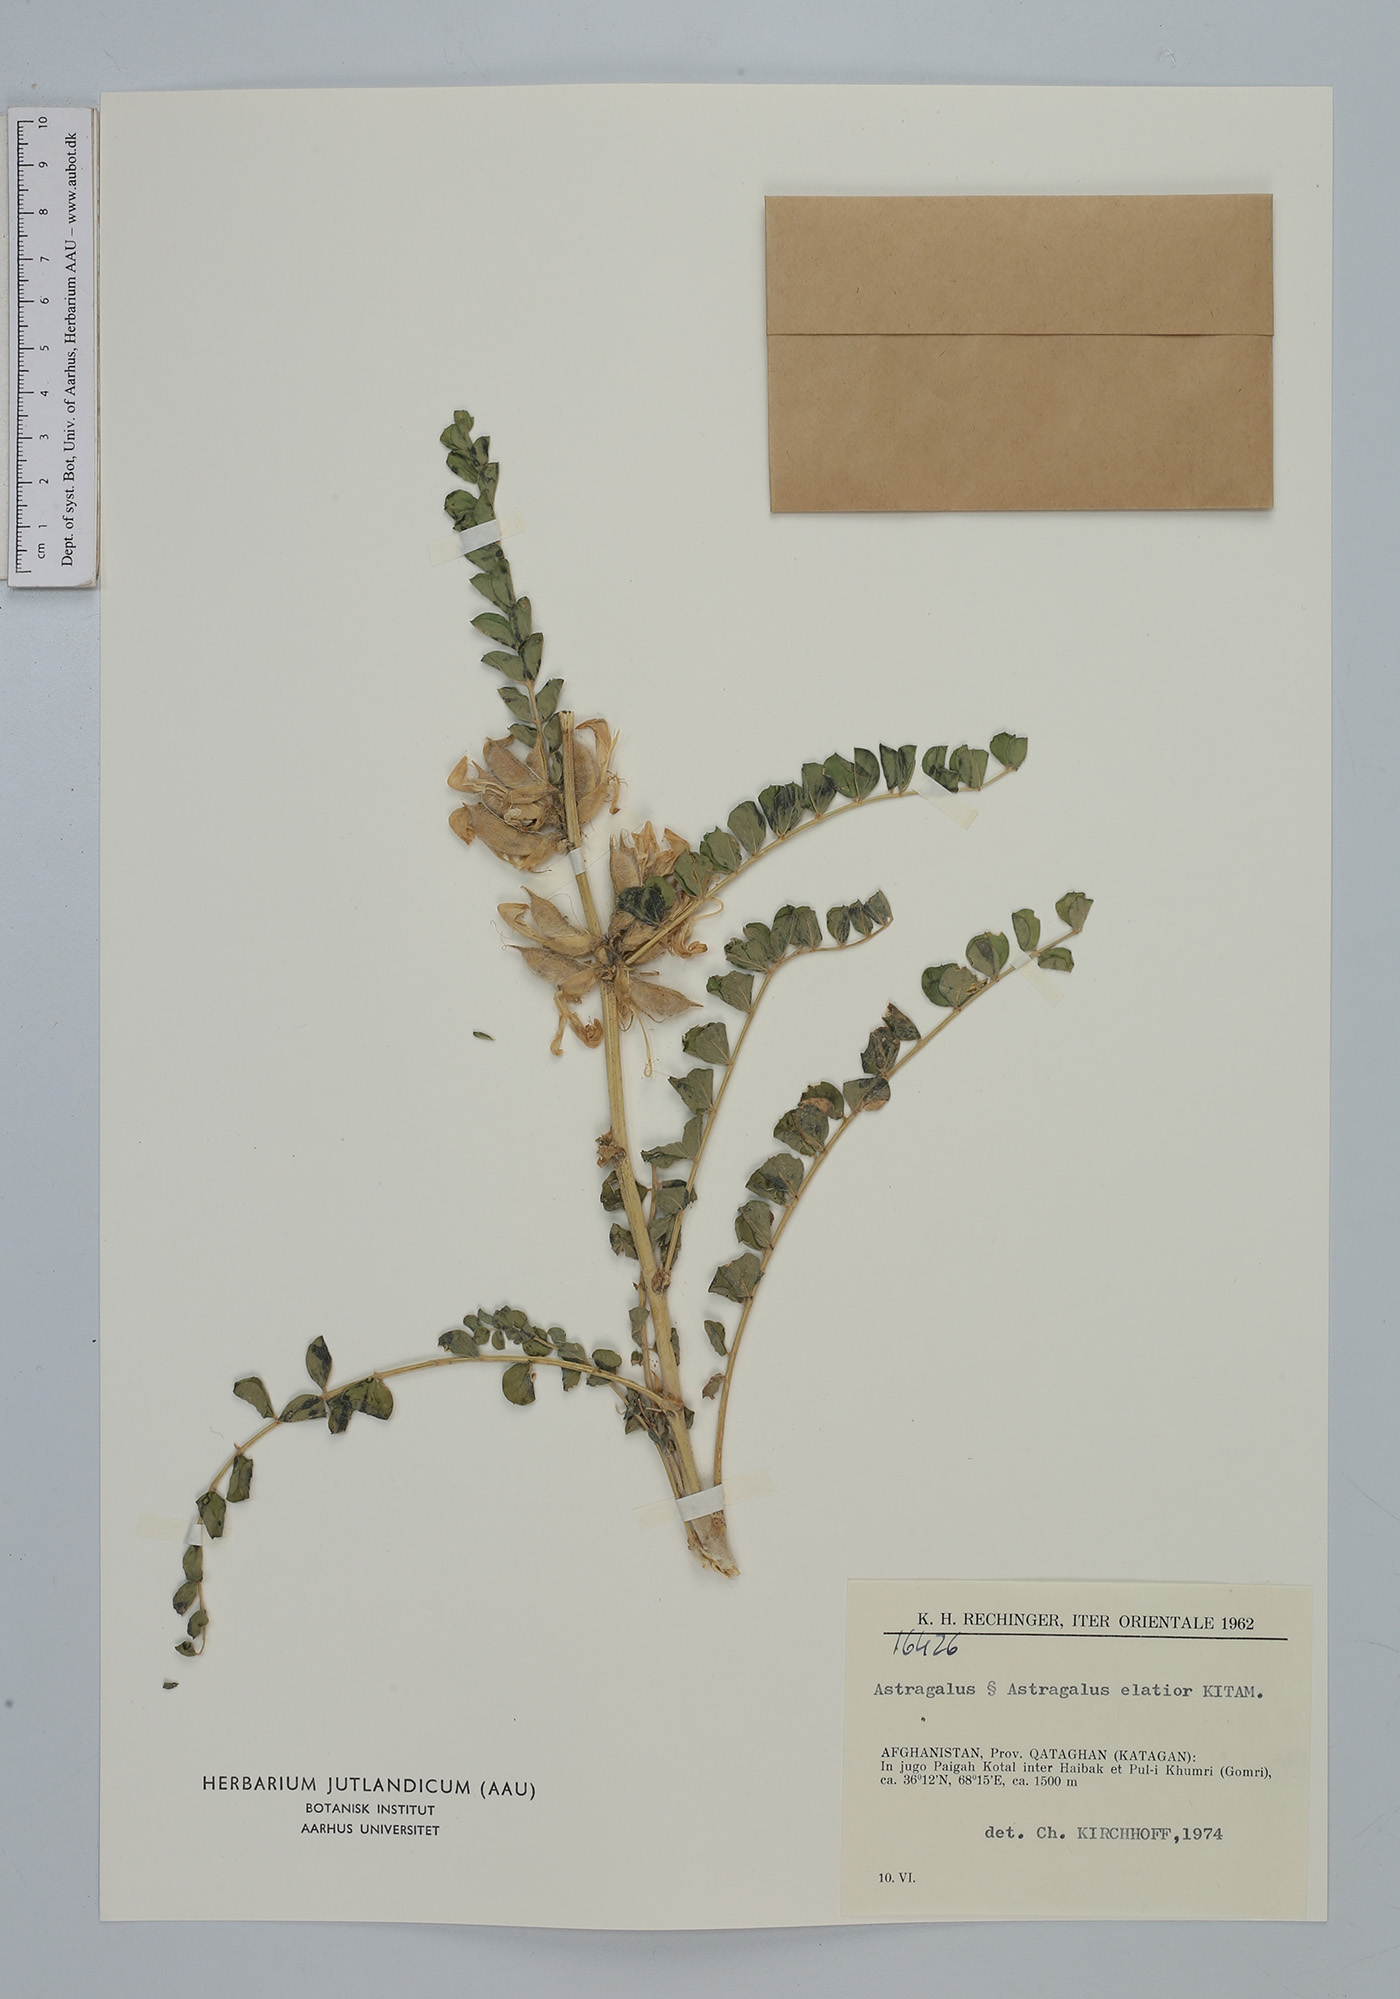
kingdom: Plantae
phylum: Tracheophyta
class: Magnoliopsida
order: Fabales
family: Fabaceae
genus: Astragalus
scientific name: Astragalus elatior
